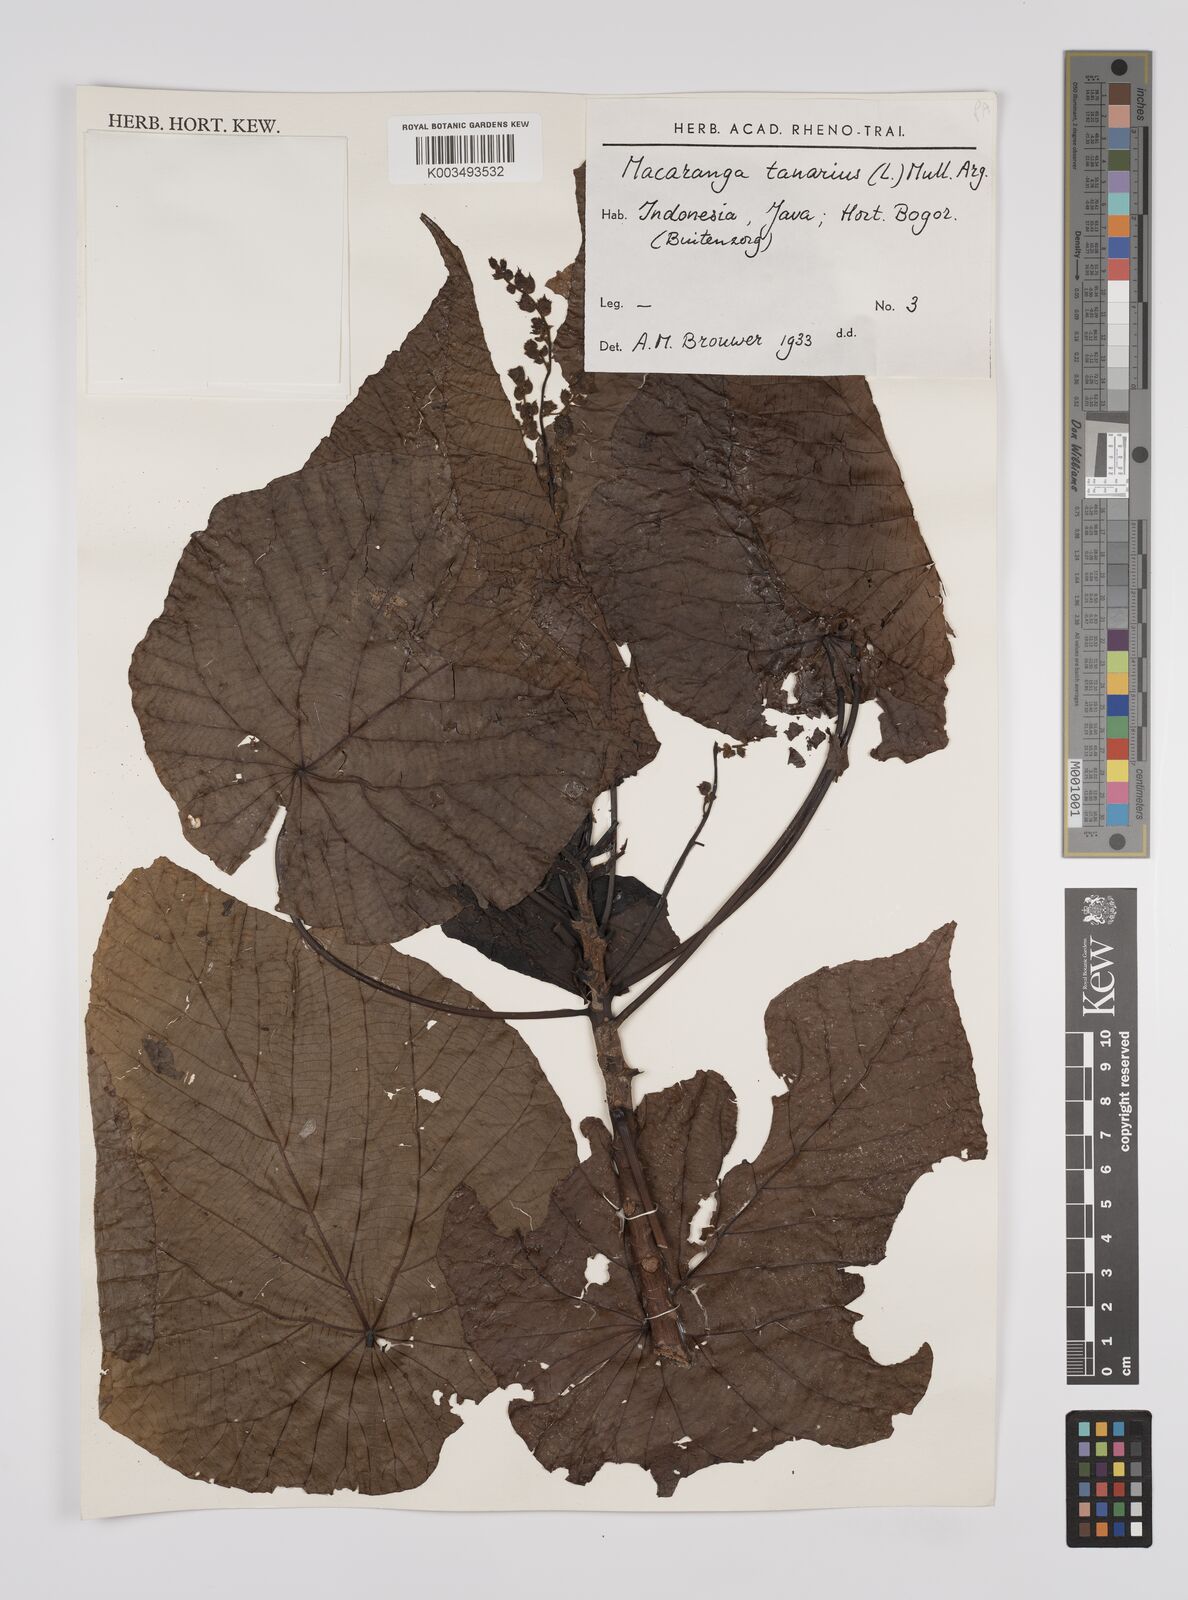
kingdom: Plantae
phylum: Tracheophyta
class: Magnoliopsida
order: Malpighiales
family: Euphorbiaceae
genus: Macaranga
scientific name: Macaranga tanarius
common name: Parasol leaf tree
